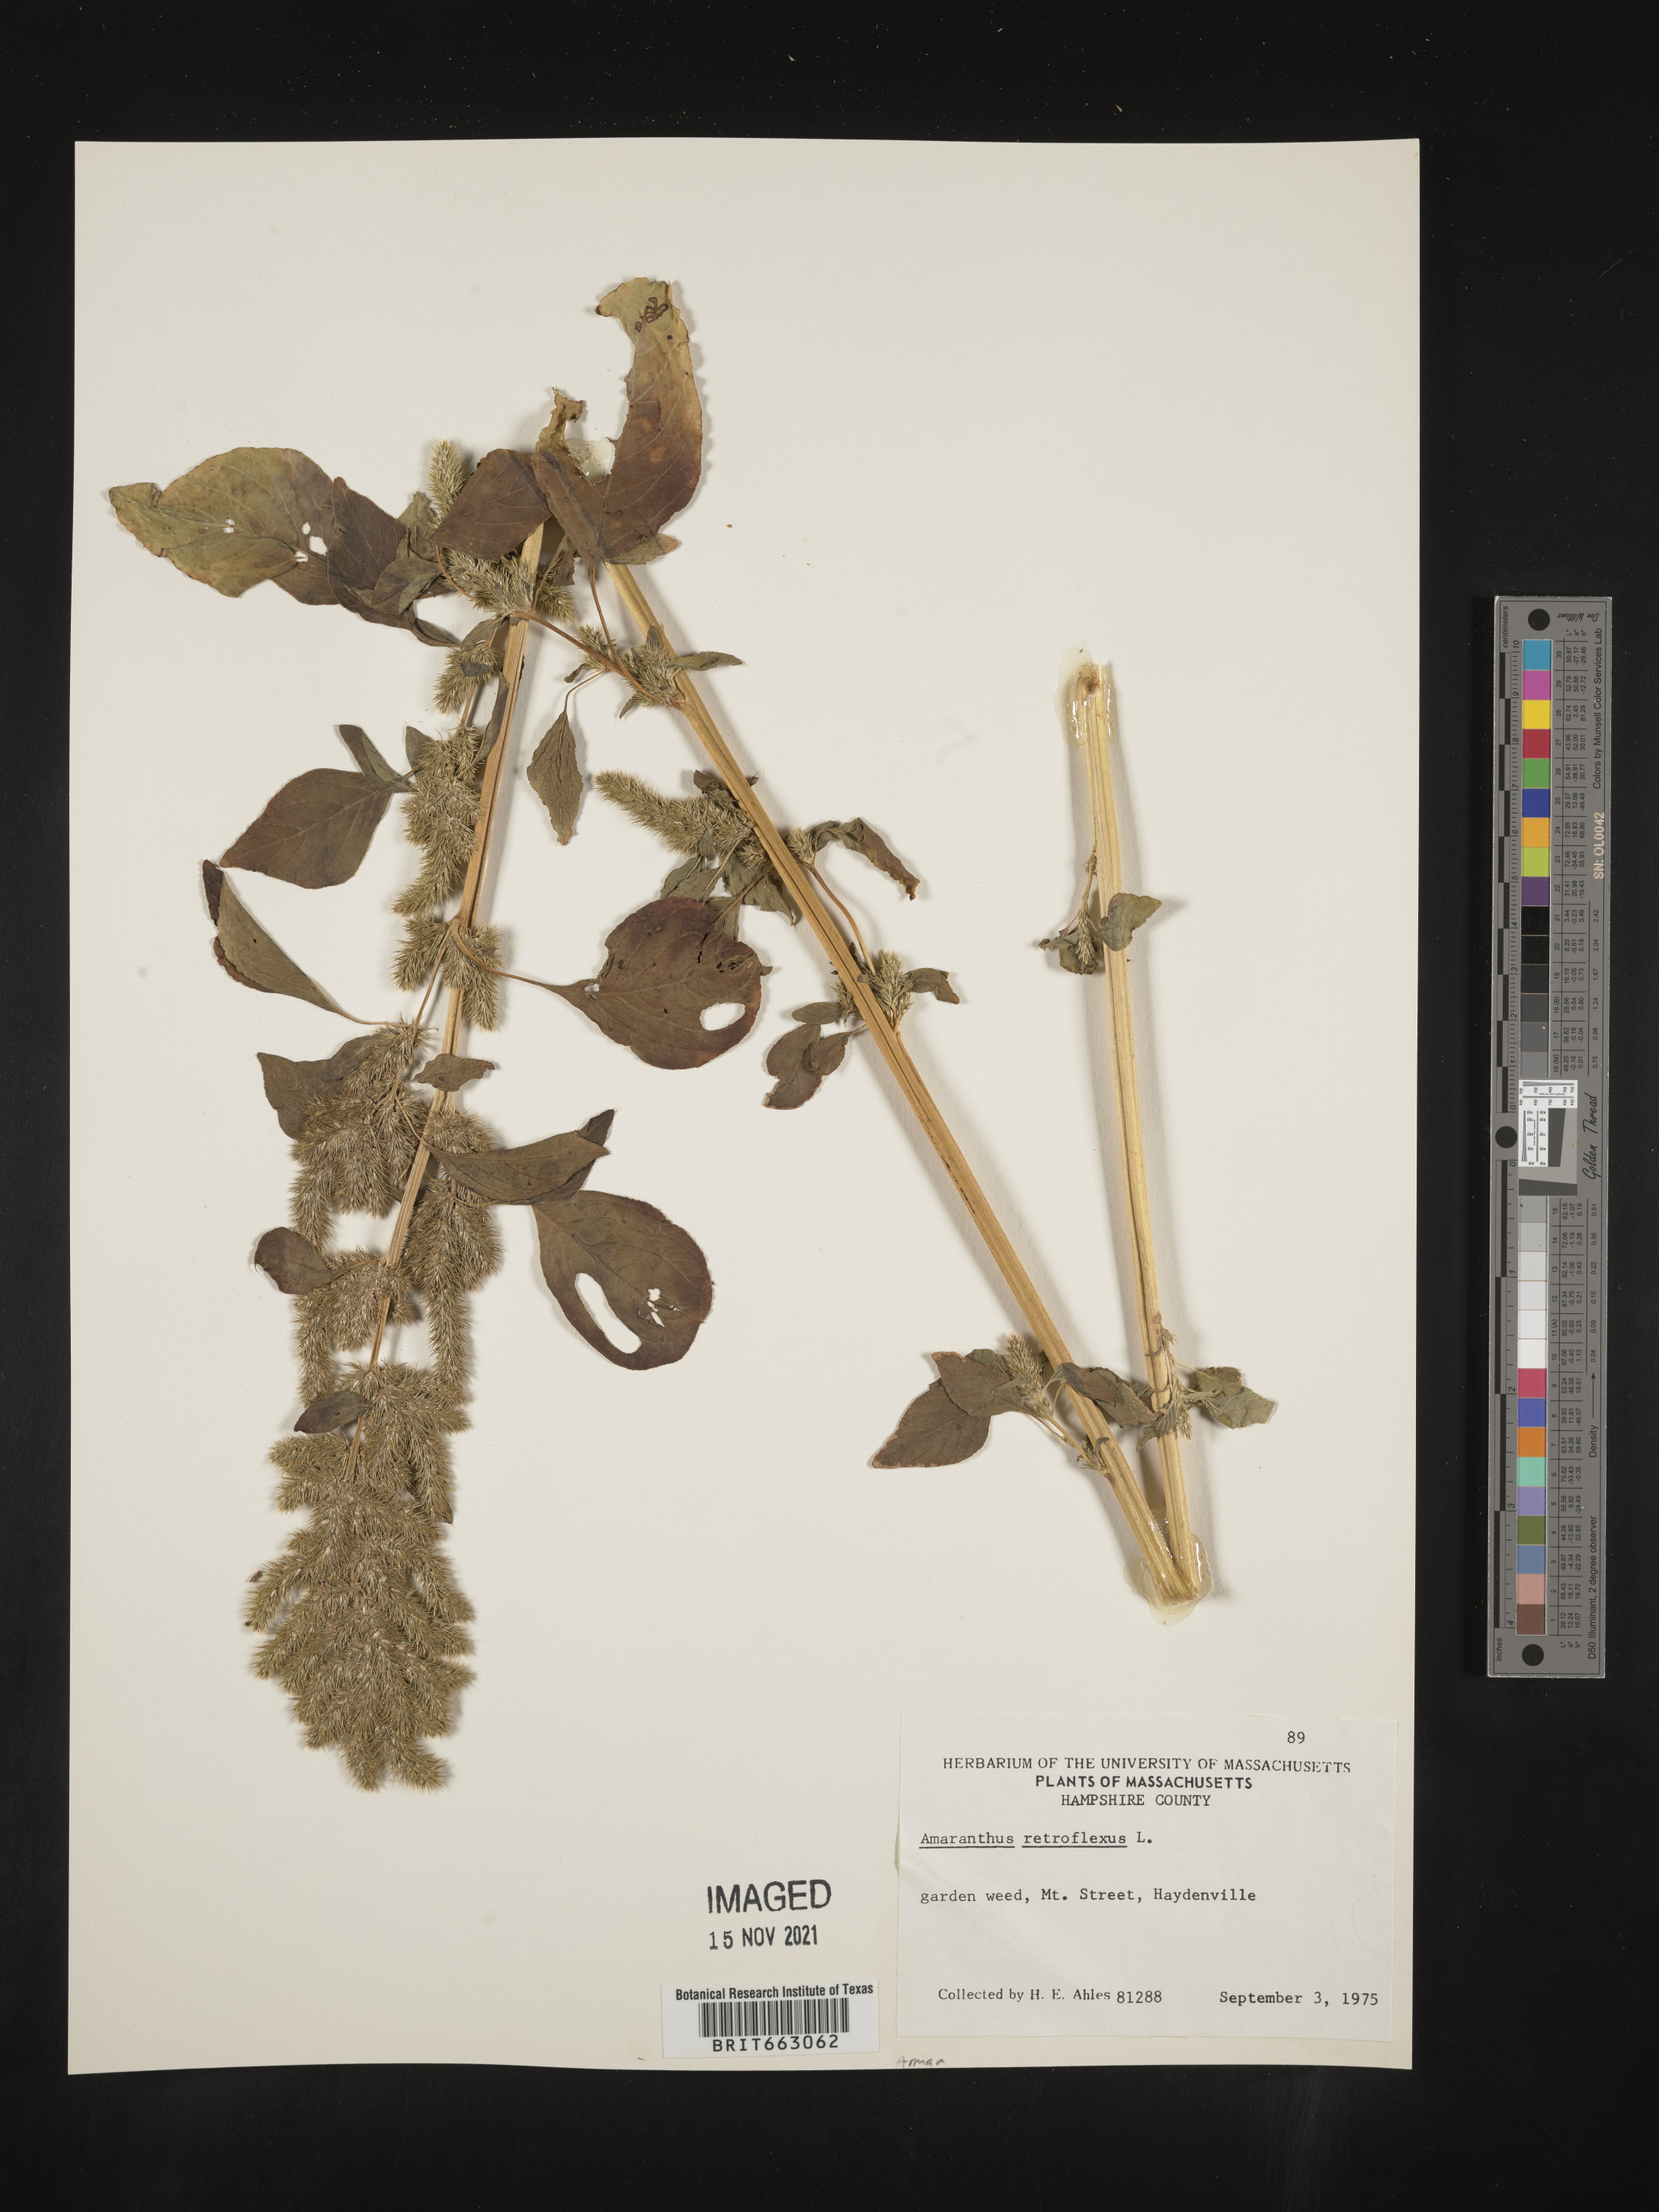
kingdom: Plantae
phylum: Tracheophyta
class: Magnoliopsida
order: Caryophyllales
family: Amaranthaceae
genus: Amaranthus
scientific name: Amaranthus retroflexus
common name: Redroot amaranth
